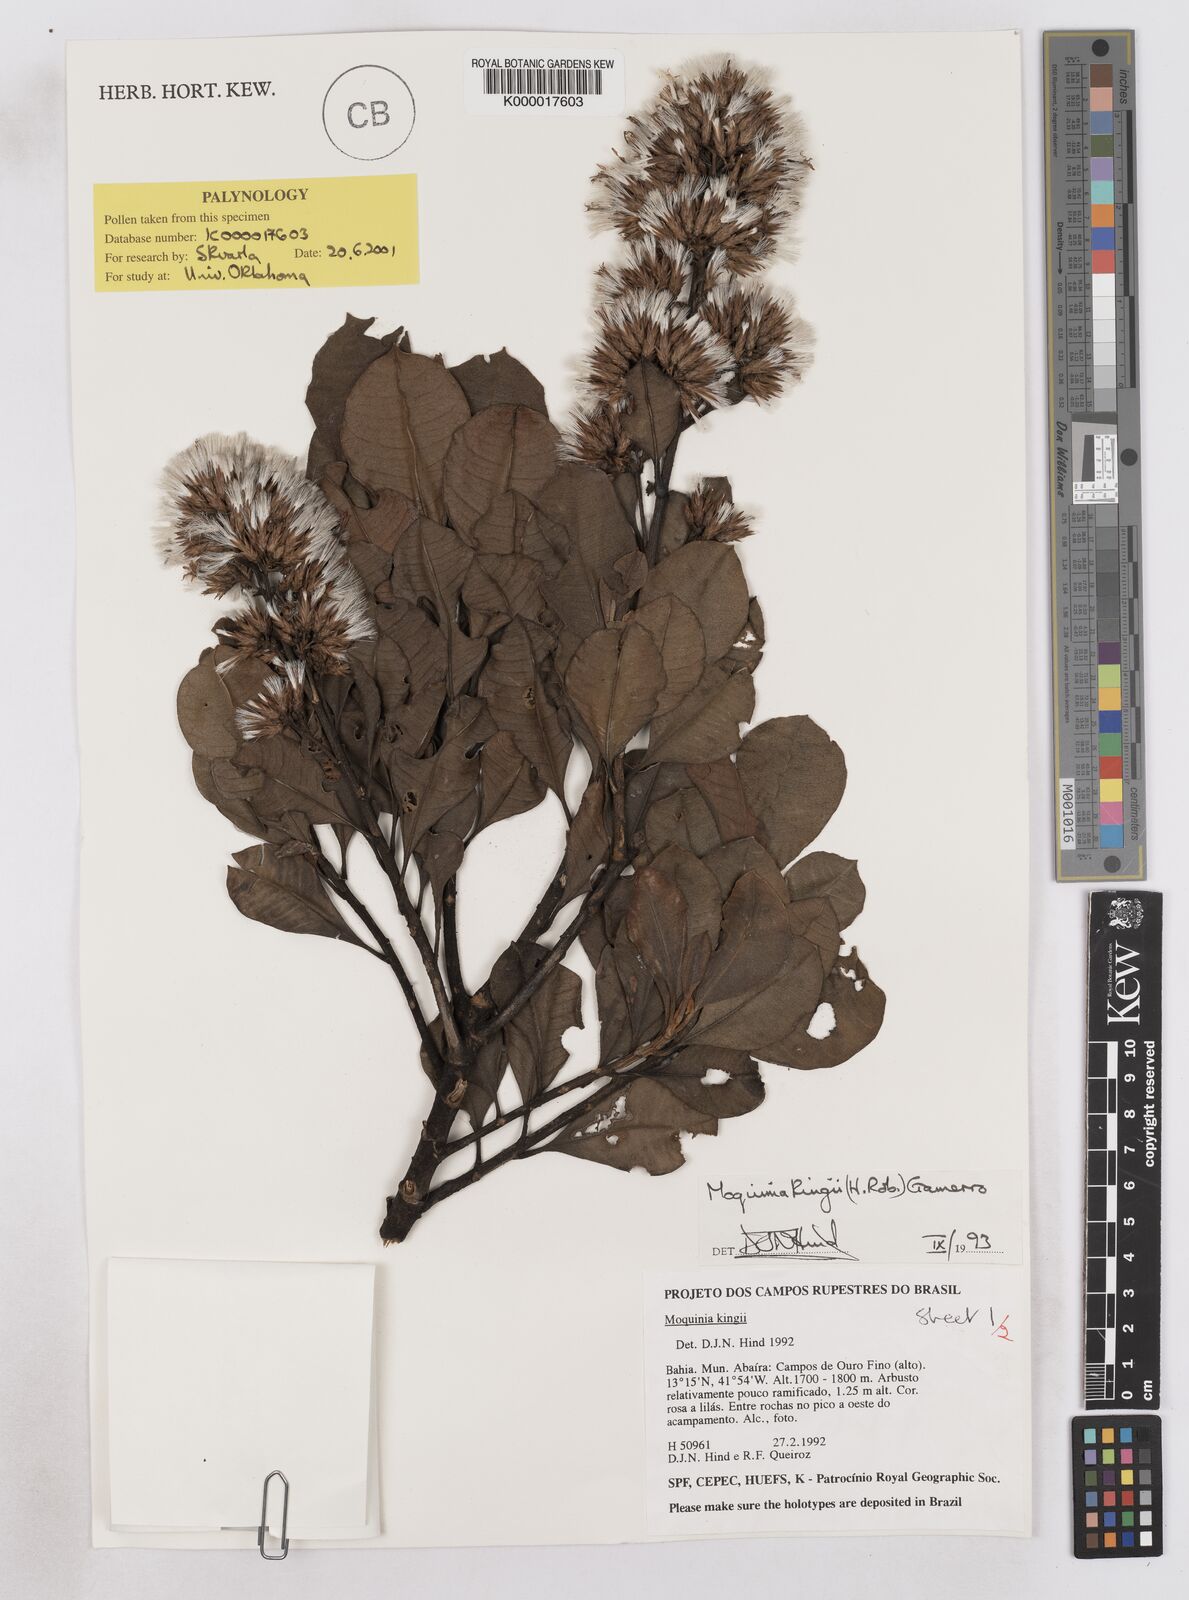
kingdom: Plantae
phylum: Tracheophyta
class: Magnoliopsida
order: Asterales
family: Asteraceae
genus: Pseudostifftia
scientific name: Pseudostifftia kingii
